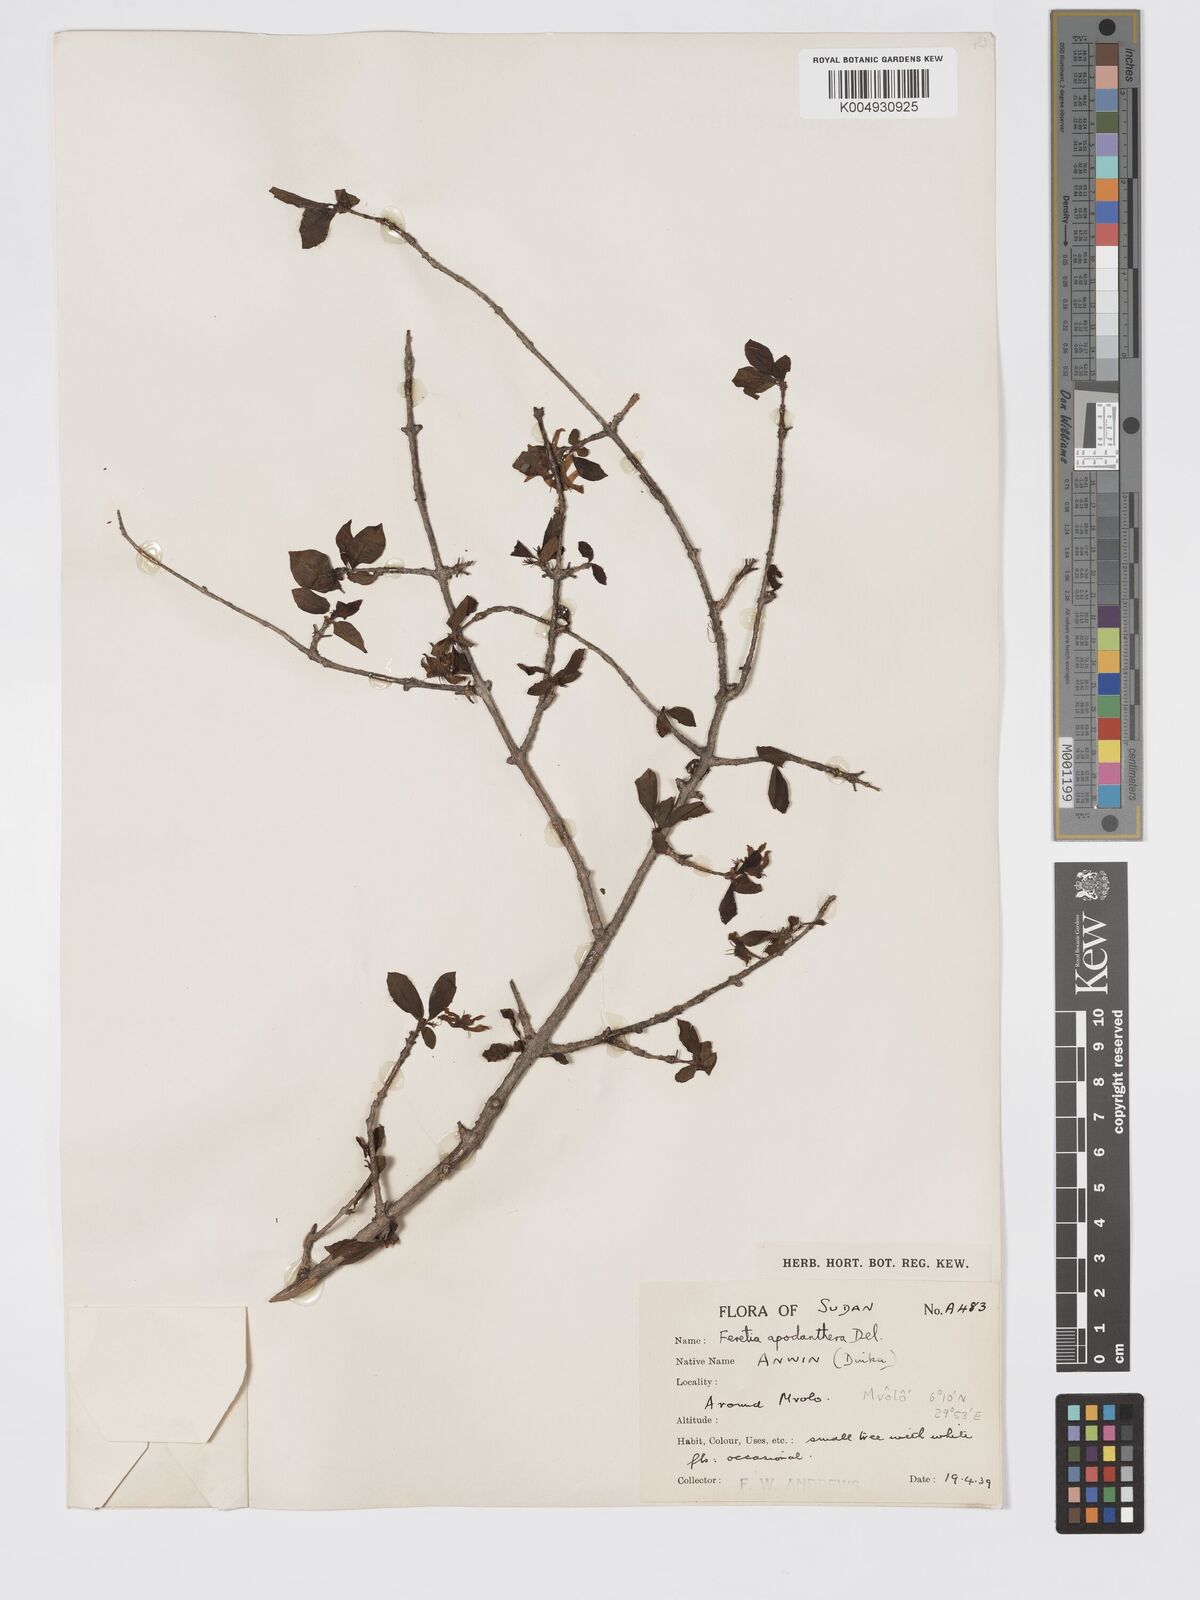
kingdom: Plantae
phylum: Tracheophyta
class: Magnoliopsida
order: Gentianales
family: Rubiaceae
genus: Feretia
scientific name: Feretia apodanthera
